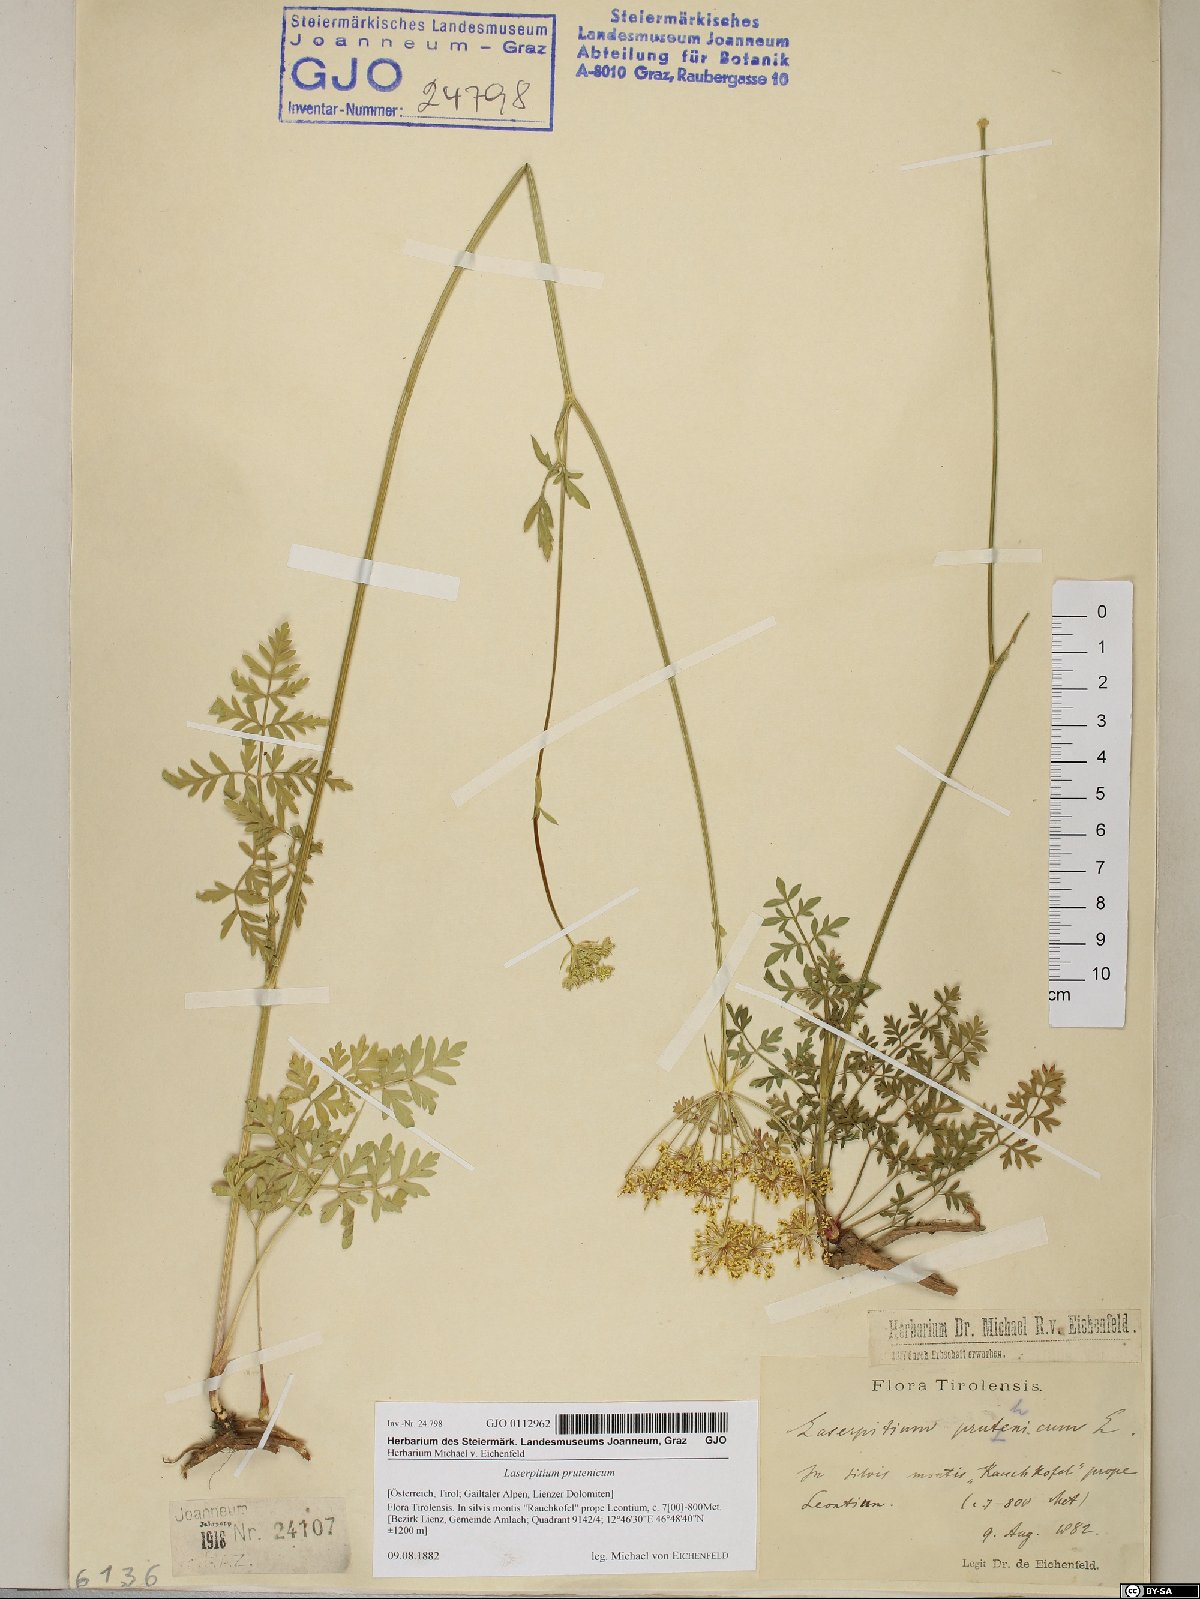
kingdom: Plantae
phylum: Tracheophyta
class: Magnoliopsida
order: Apiales
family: Apiaceae
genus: Silphiodaucus
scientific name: Silphiodaucus prutenicus
